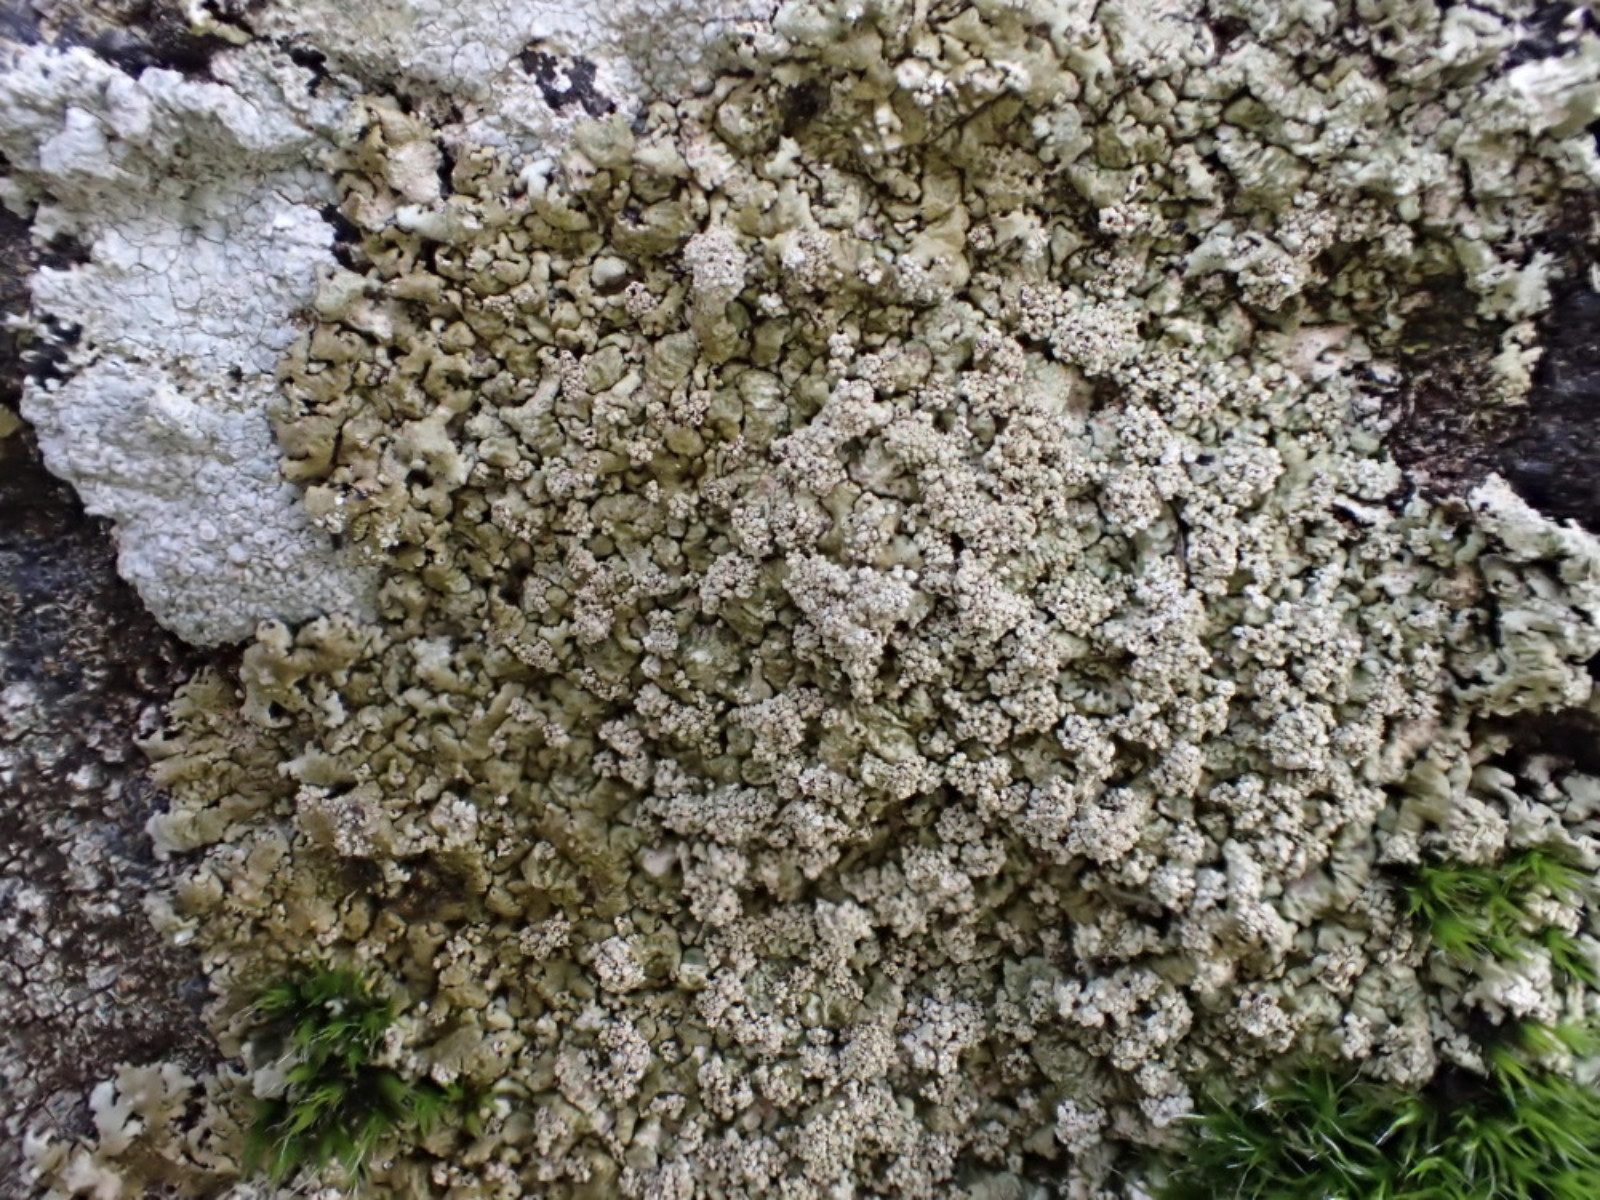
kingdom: Fungi
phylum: Ascomycota
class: Lecanoromycetes
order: Lecanorales
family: Parmeliaceae
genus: Xanthoparmelia
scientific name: Xanthoparmelia loxodes
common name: knudret skållav
